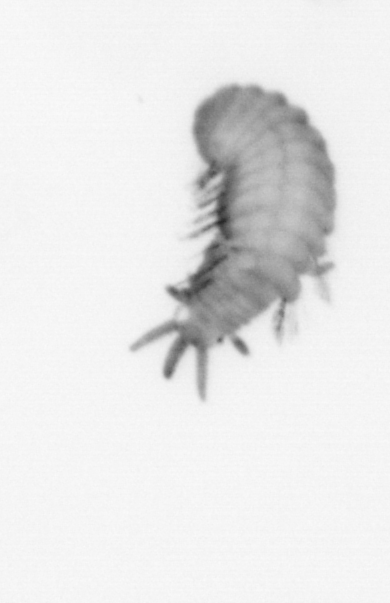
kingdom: Animalia
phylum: Annelida
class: Polychaeta
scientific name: Polychaeta
